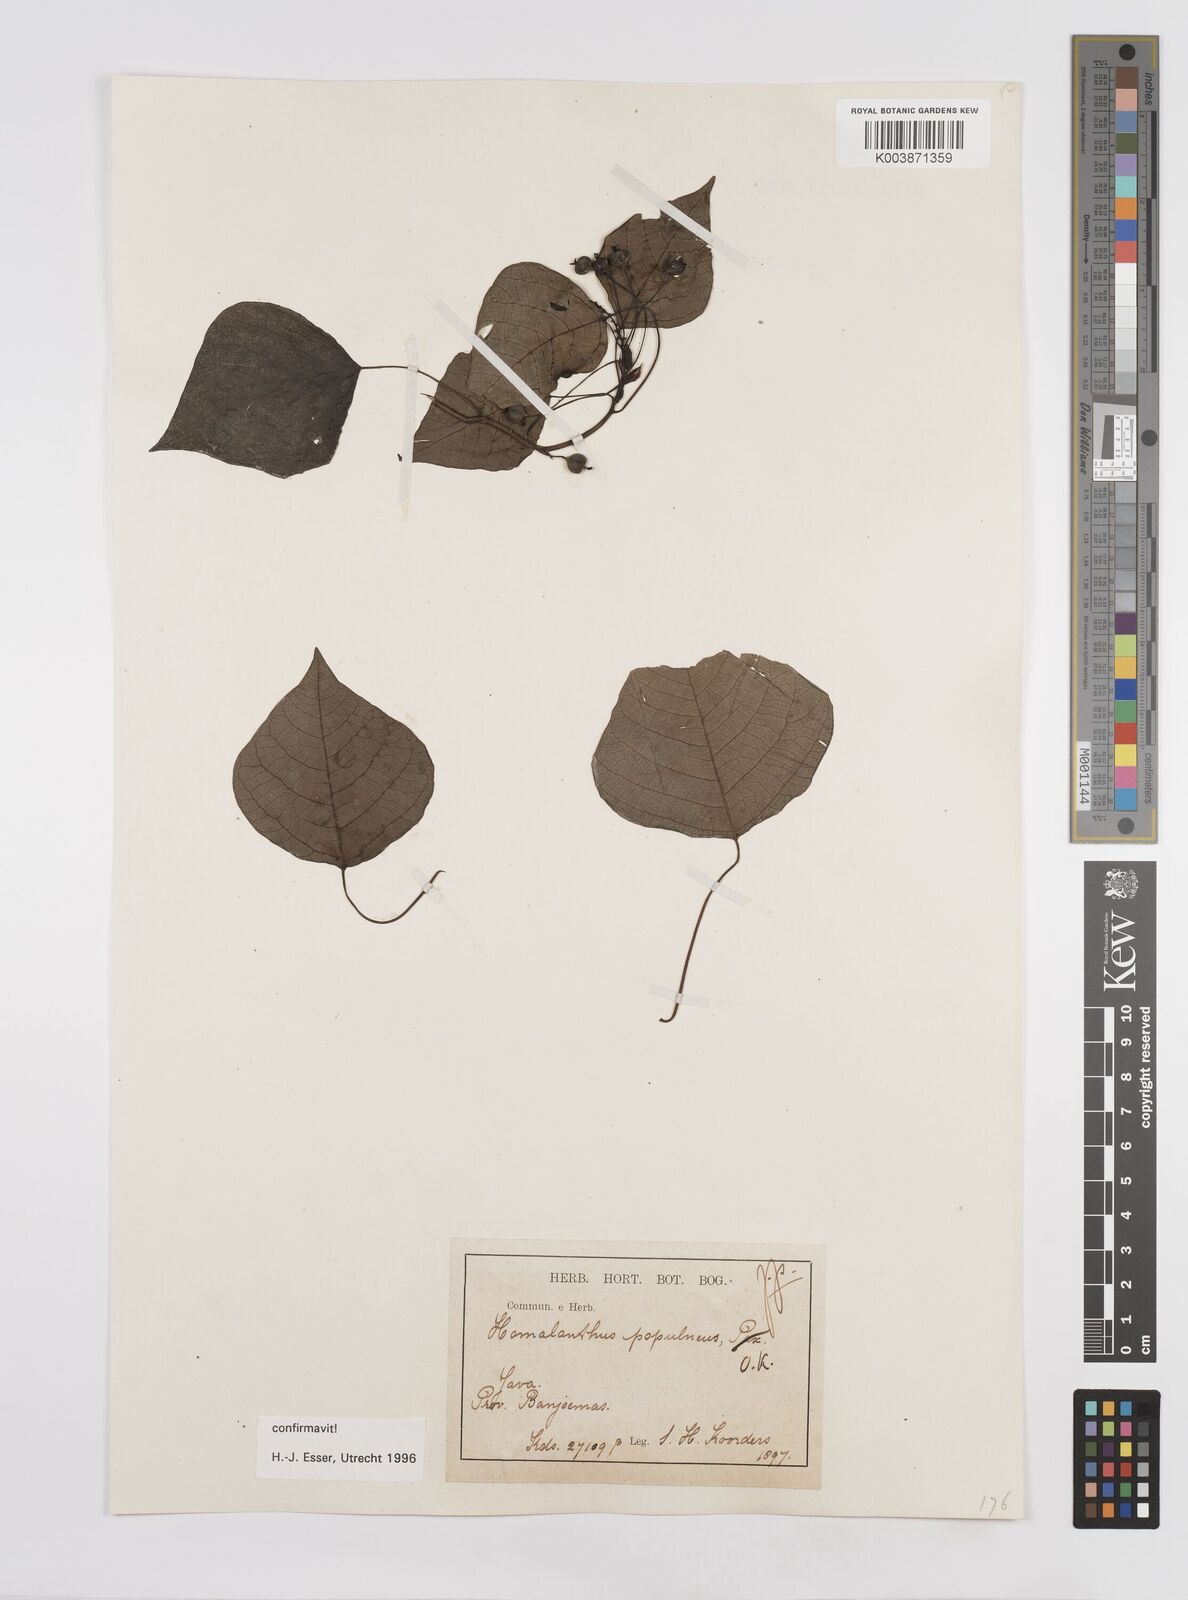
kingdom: Plantae
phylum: Tracheophyta
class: Magnoliopsida
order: Malpighiales
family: Euphorbiaceae
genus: Homalanthus
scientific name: Homalanthus populneus
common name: Spurge
